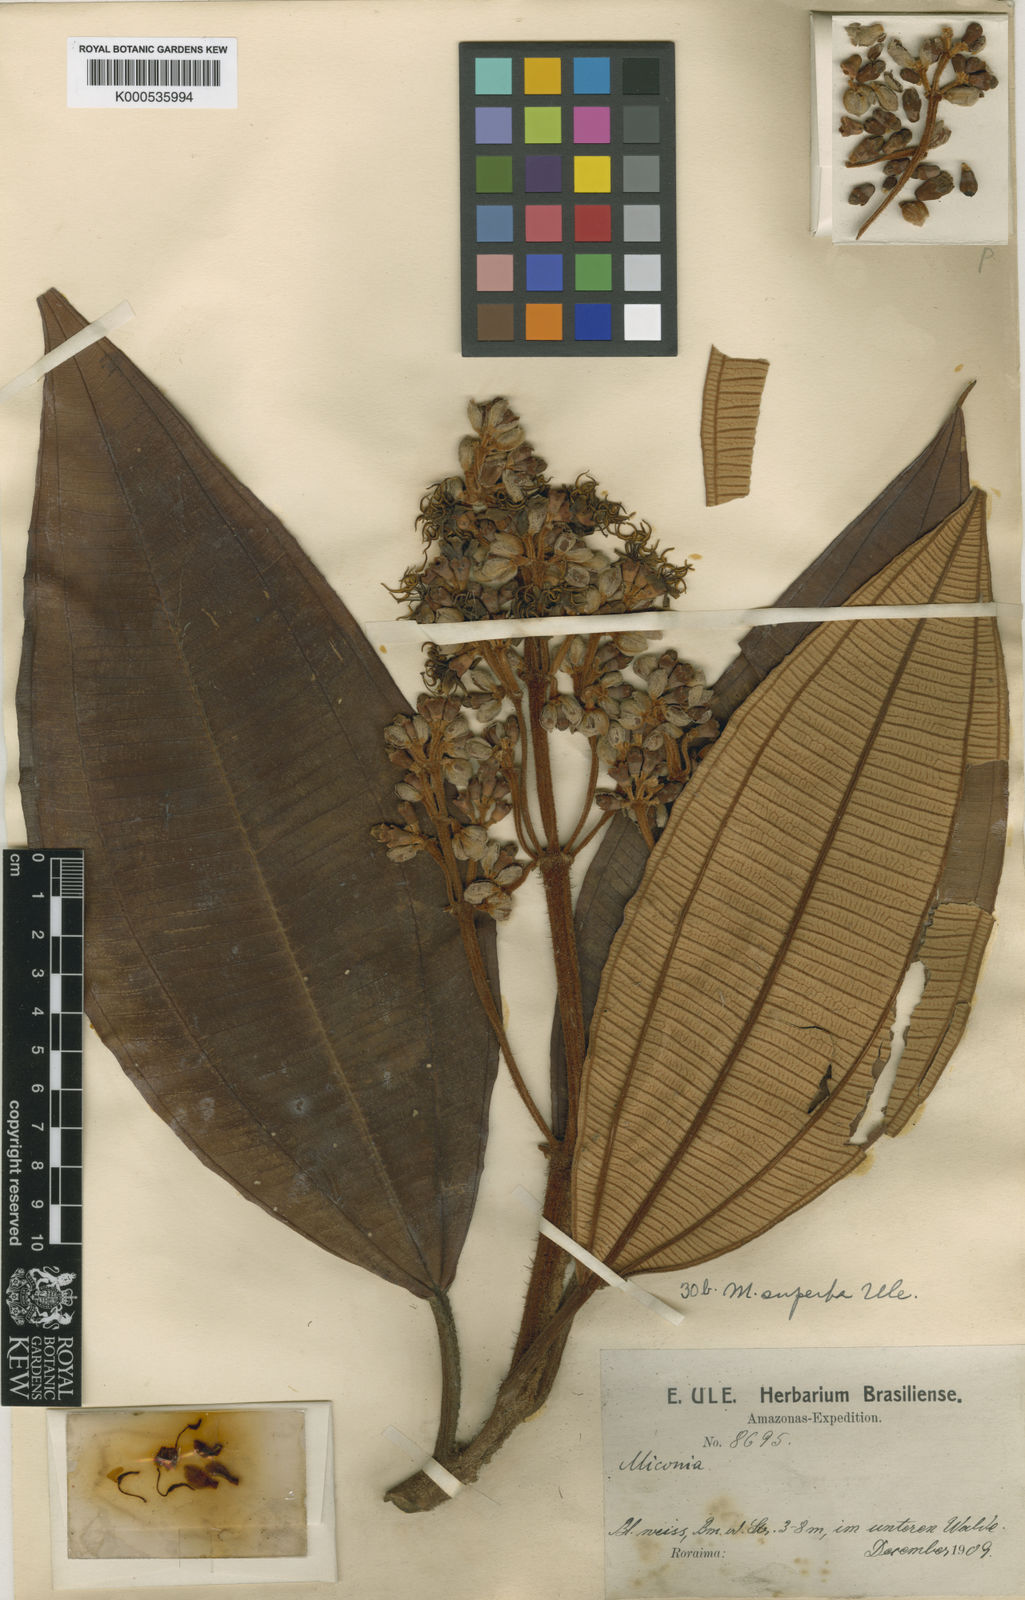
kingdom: Plantae
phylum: Tracheophyta
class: Magnoliopsida
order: Myrtales
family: Melastomataceae
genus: Miconia
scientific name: Miconia superba
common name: Superb maya
